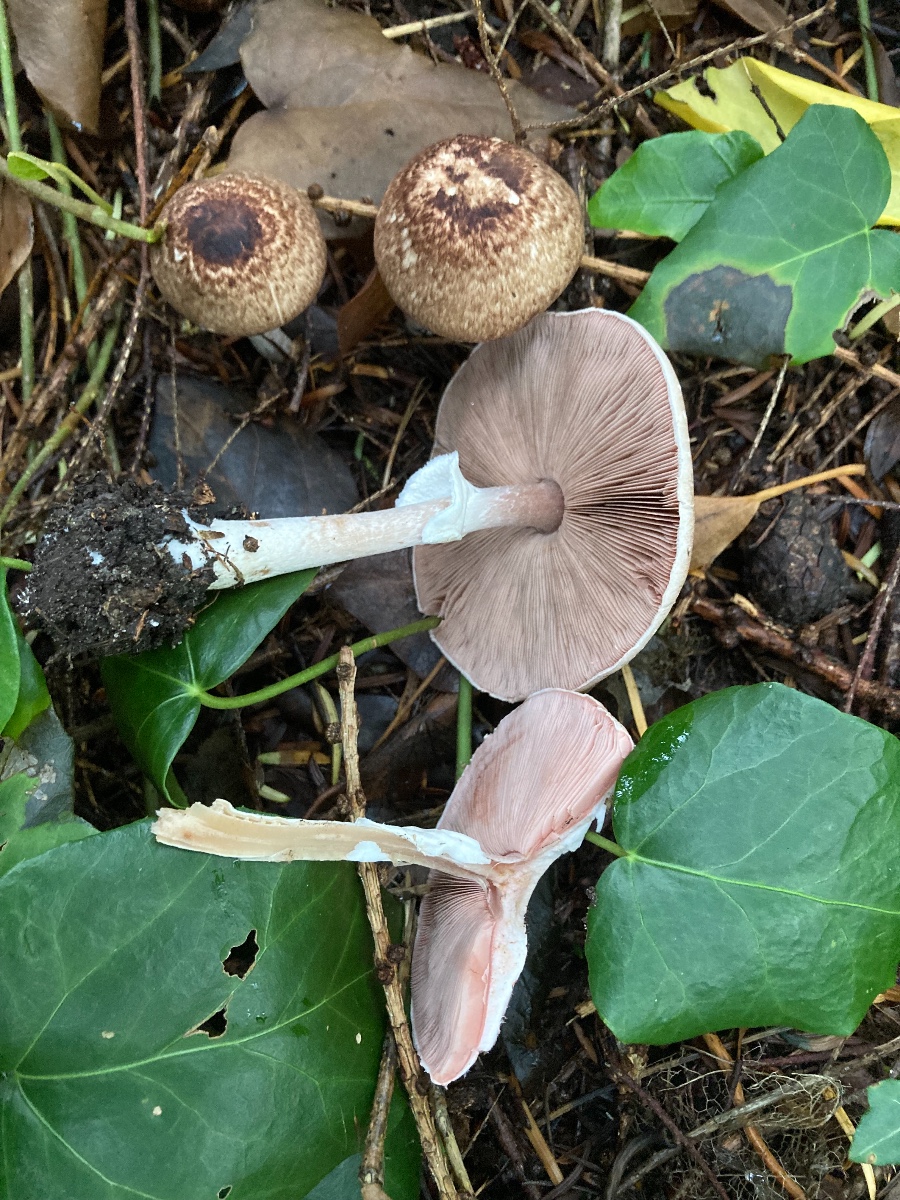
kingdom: Fungi
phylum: Basidiomycota
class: Agaricomycetes
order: Agaricales
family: Agaricaceae
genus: Agaricus
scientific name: Agaricus impudicus
